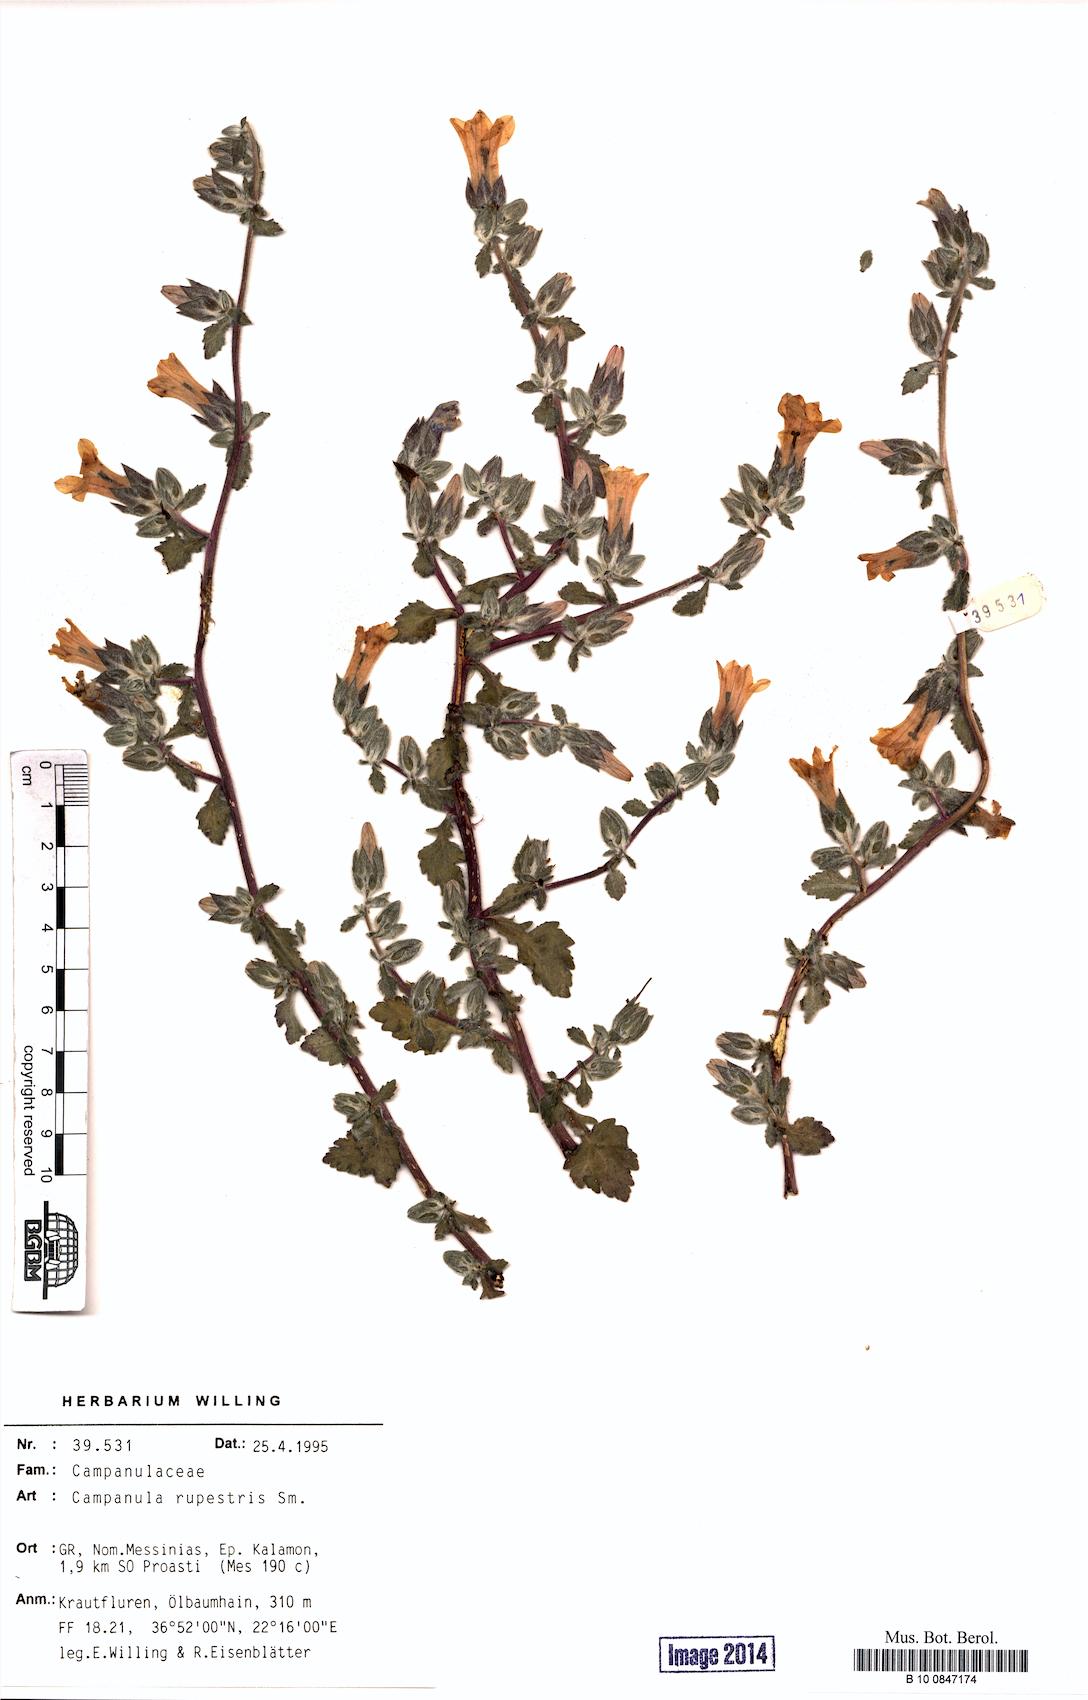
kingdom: Plantae
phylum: Tracheophyta
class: Magnoliopsida
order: Asterales
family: Campanulaceae
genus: Campanula
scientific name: Campanula rupestris
